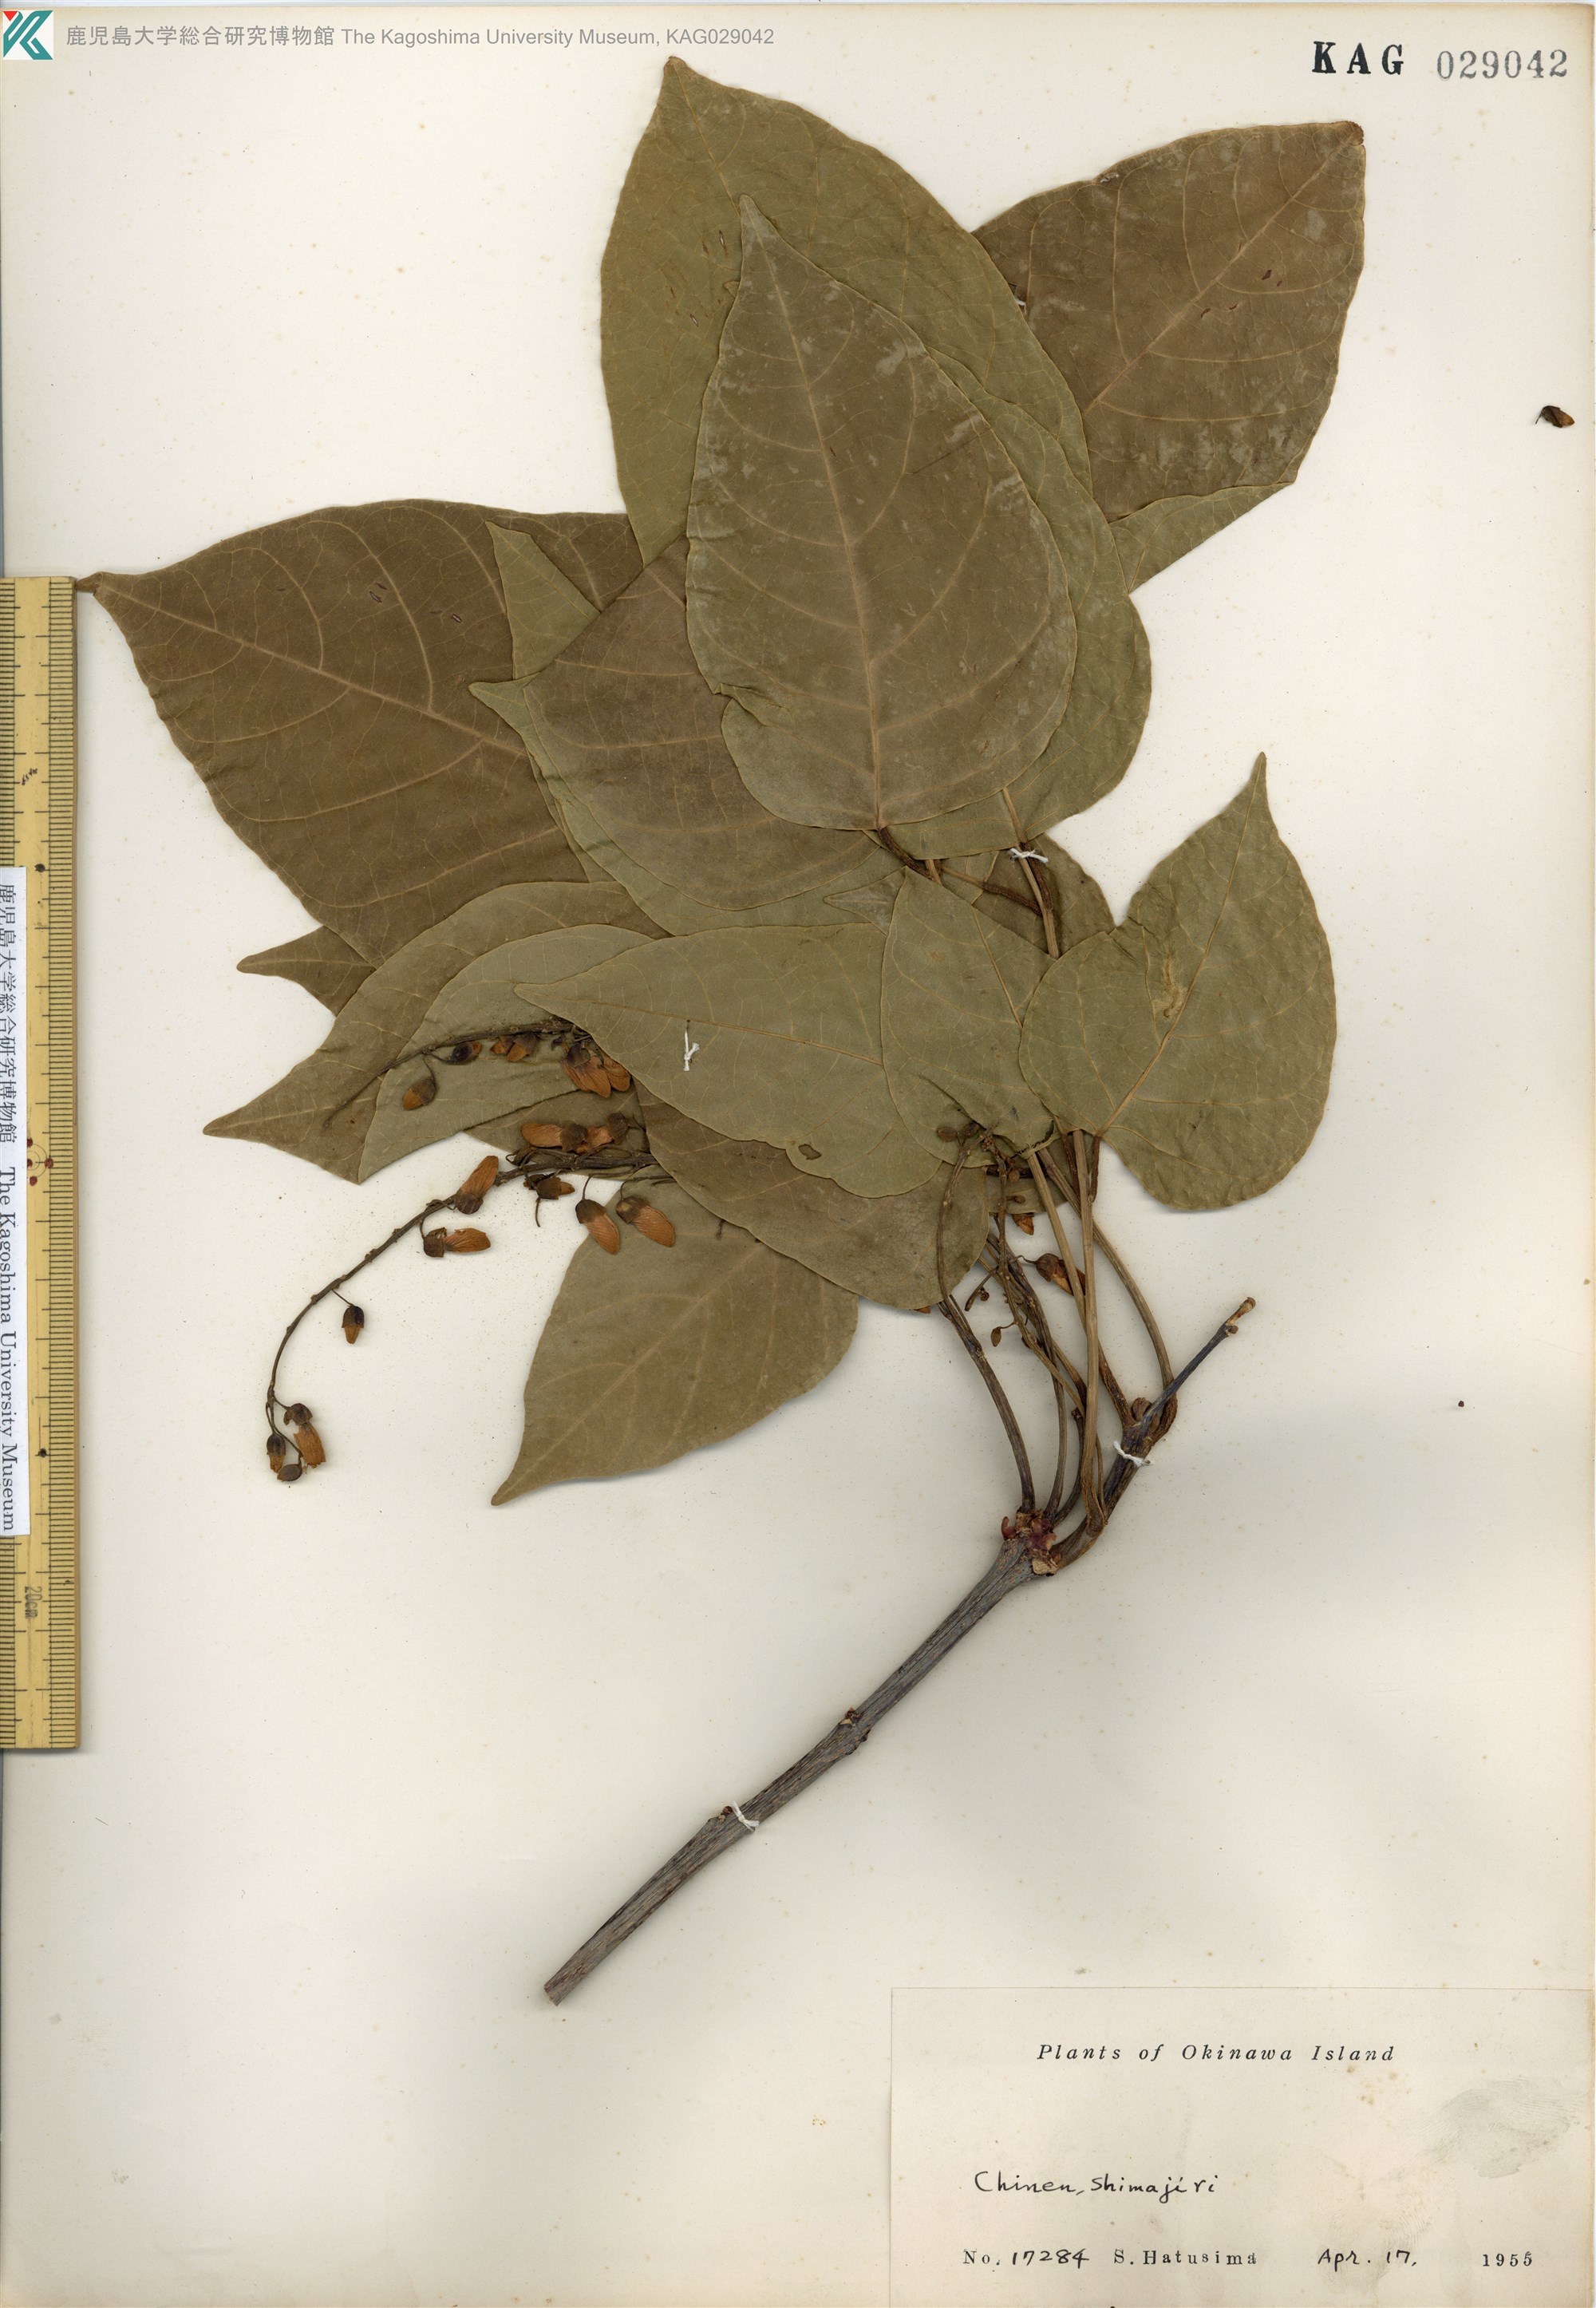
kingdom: Plantae
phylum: Tracheophyta
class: Magnoliopsida
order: Fabales
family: Fabaceae
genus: Pongamia
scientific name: Pongamia pinnata
